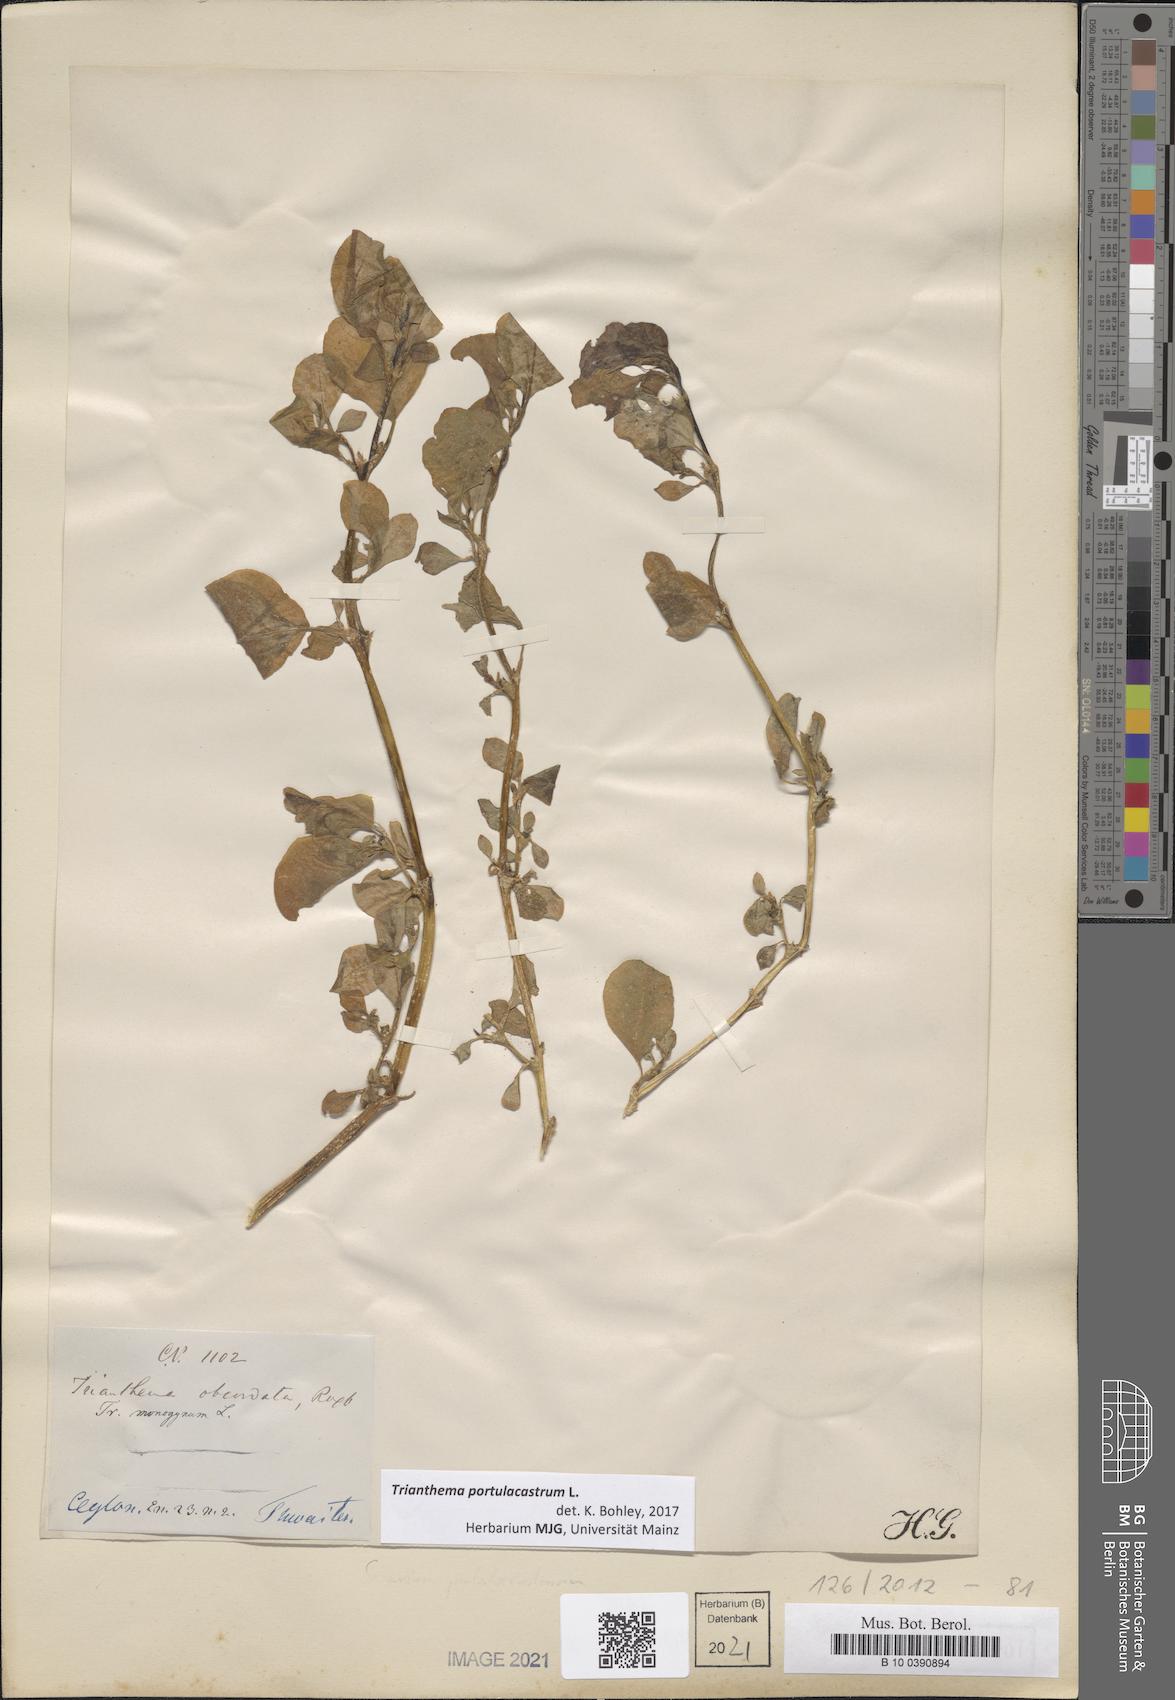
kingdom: Plantae
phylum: Tracheophyta
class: Magnoliopsida
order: Caryophyllales
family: Aizoaceae
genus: Trianthema
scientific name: Trianthema portulacastrum
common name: Desert horsepurslane
